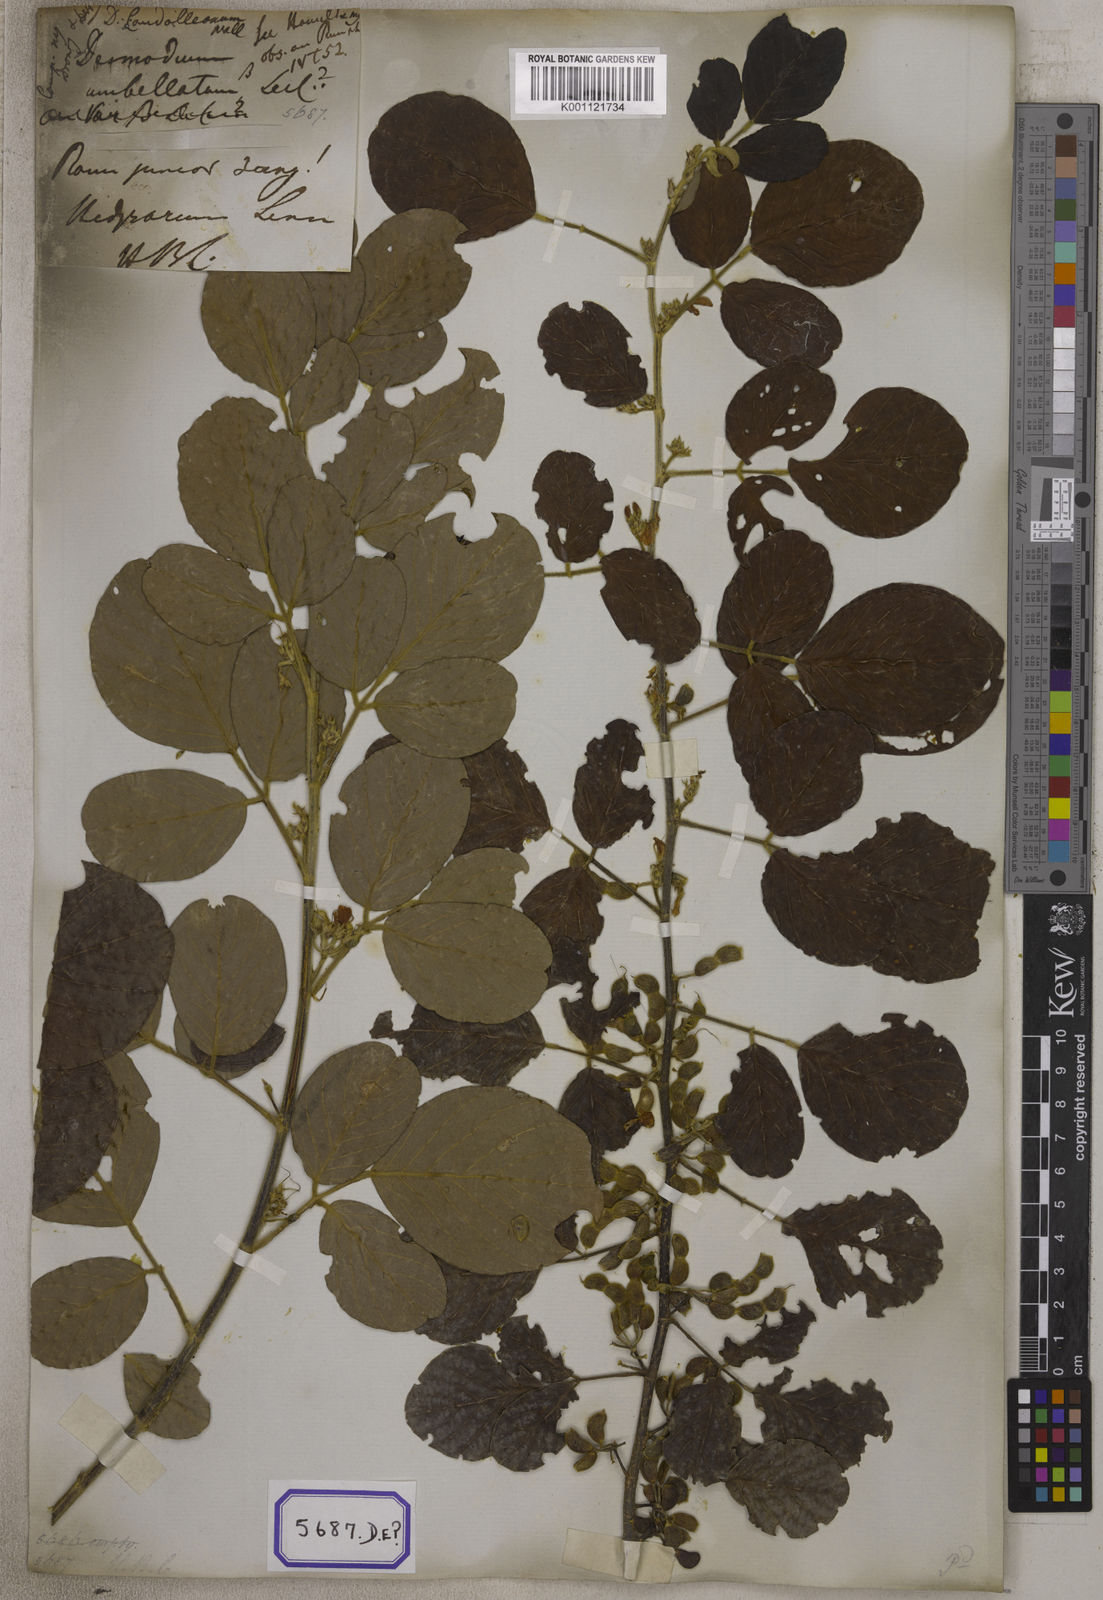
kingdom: Plantae
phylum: Tracheophyta
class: Magnoliopsida
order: Fabales
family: Fabaceae
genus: Dendrolobium
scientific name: Dendrolobium umbellatum
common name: Horsebush
